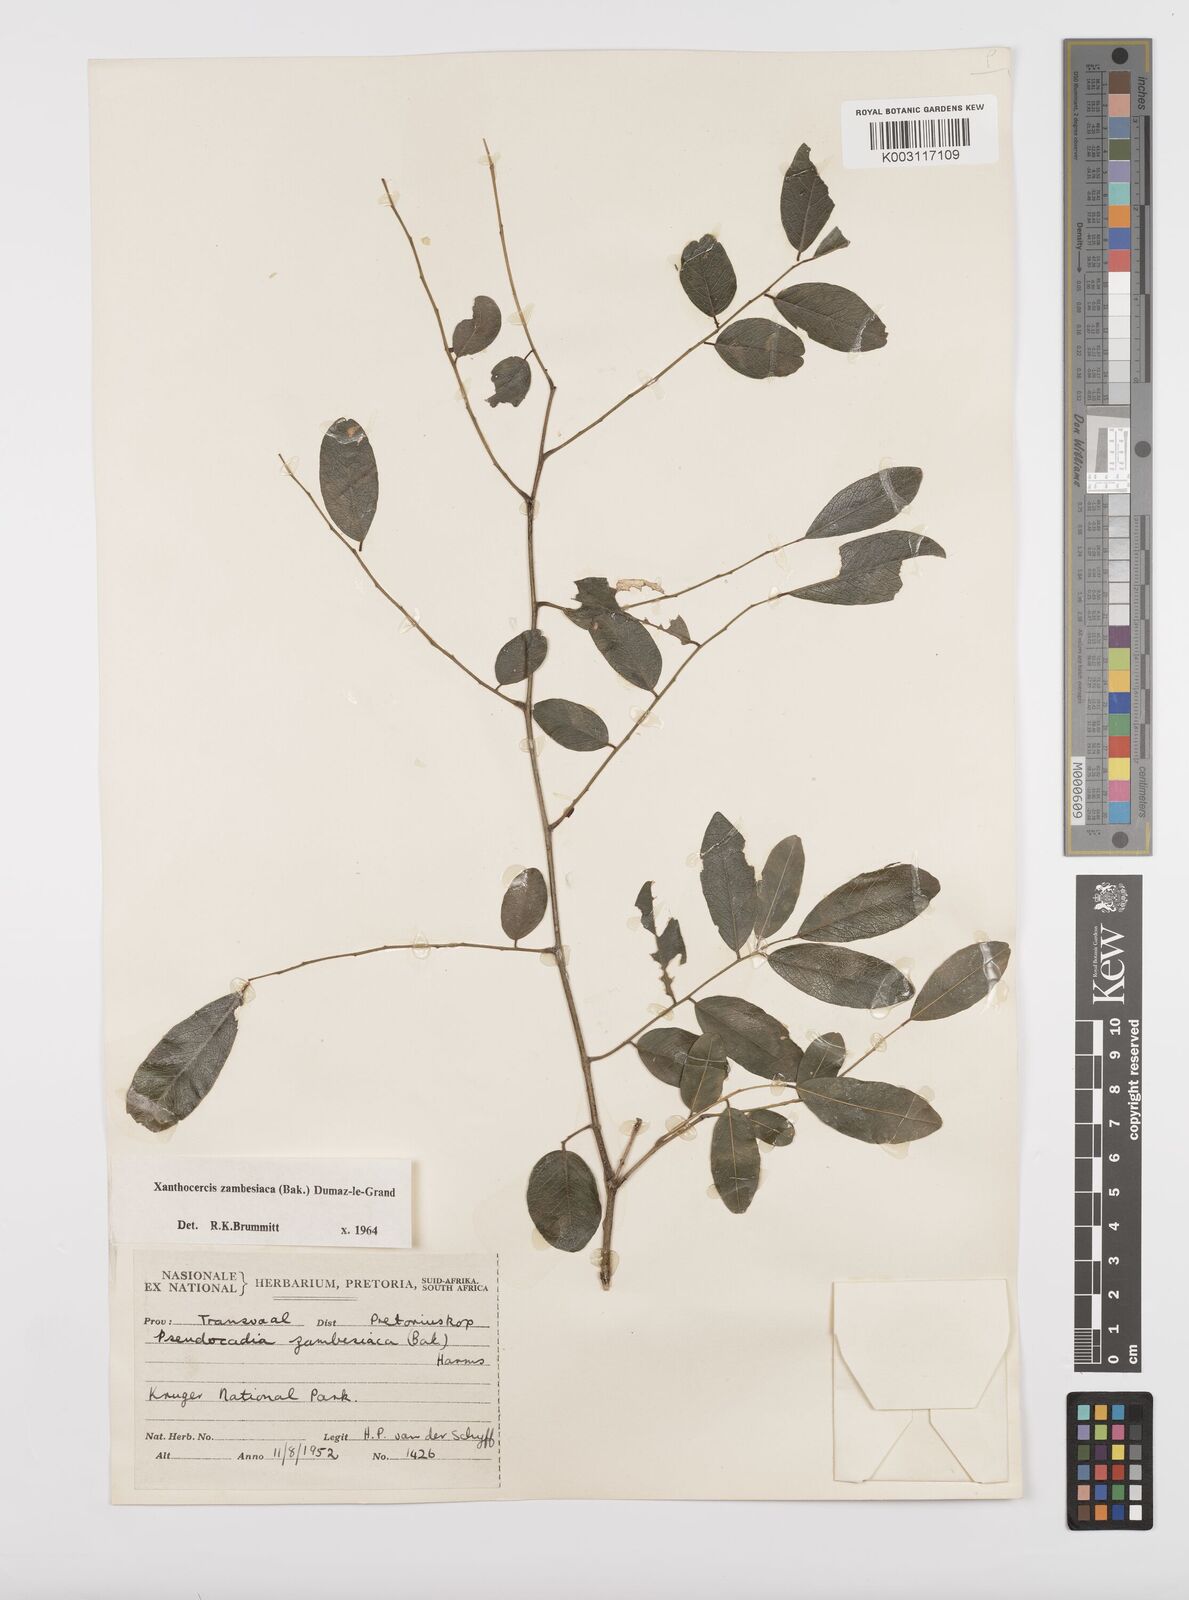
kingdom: Plantae
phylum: Tracheophyta
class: Magnoliopsida
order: Fabales
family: Fabaceae
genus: Xanthocercis
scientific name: Xanthocercis zambesiaca
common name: Nyala-tree
